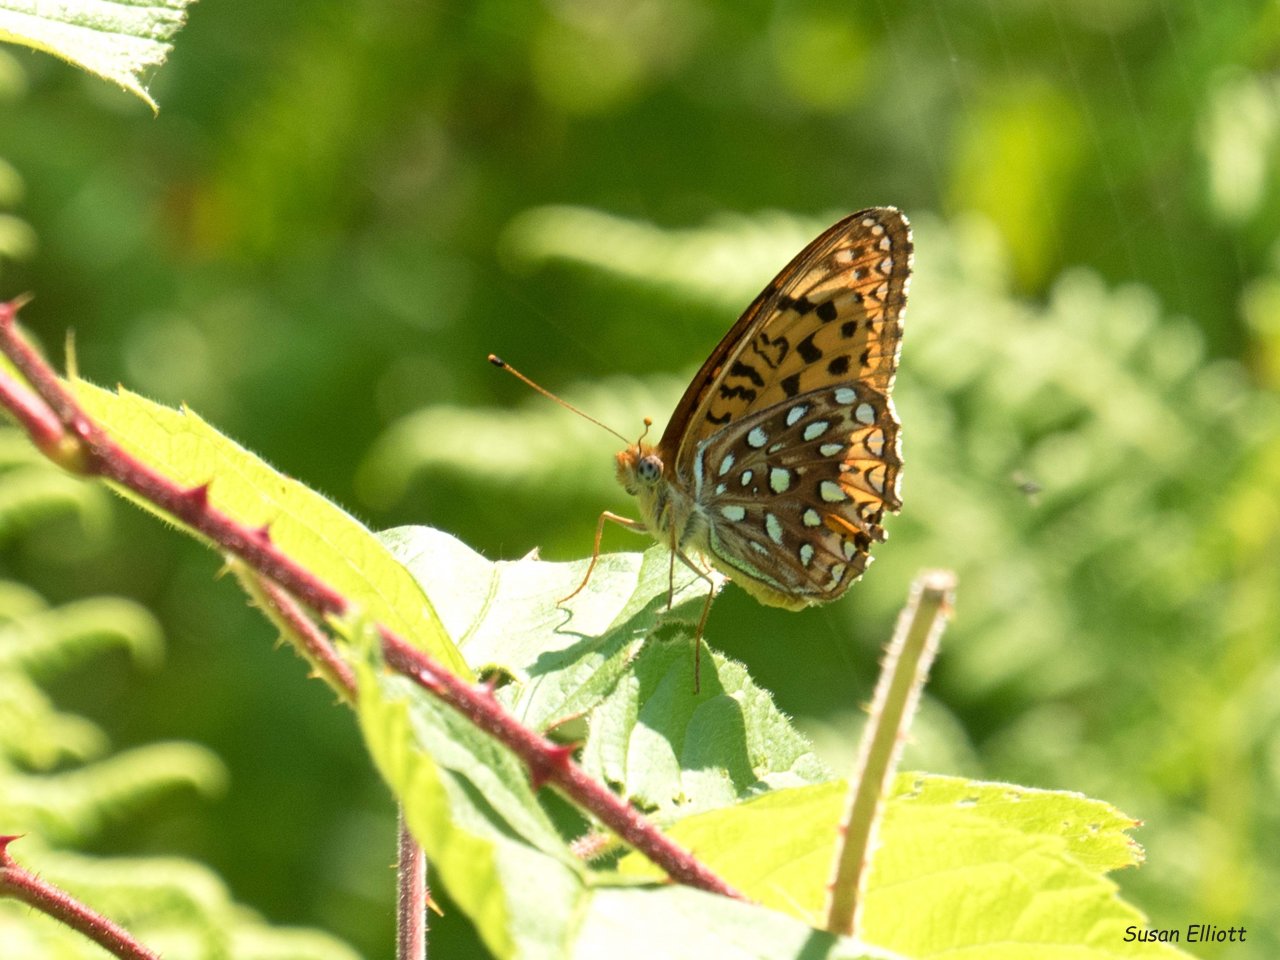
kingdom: Animalia
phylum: Arthropoda
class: Insecta
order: Lepidoptera
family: Nymphalidae
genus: Speyeria
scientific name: Speyeria atlantis
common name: Atlantis Fritillary
